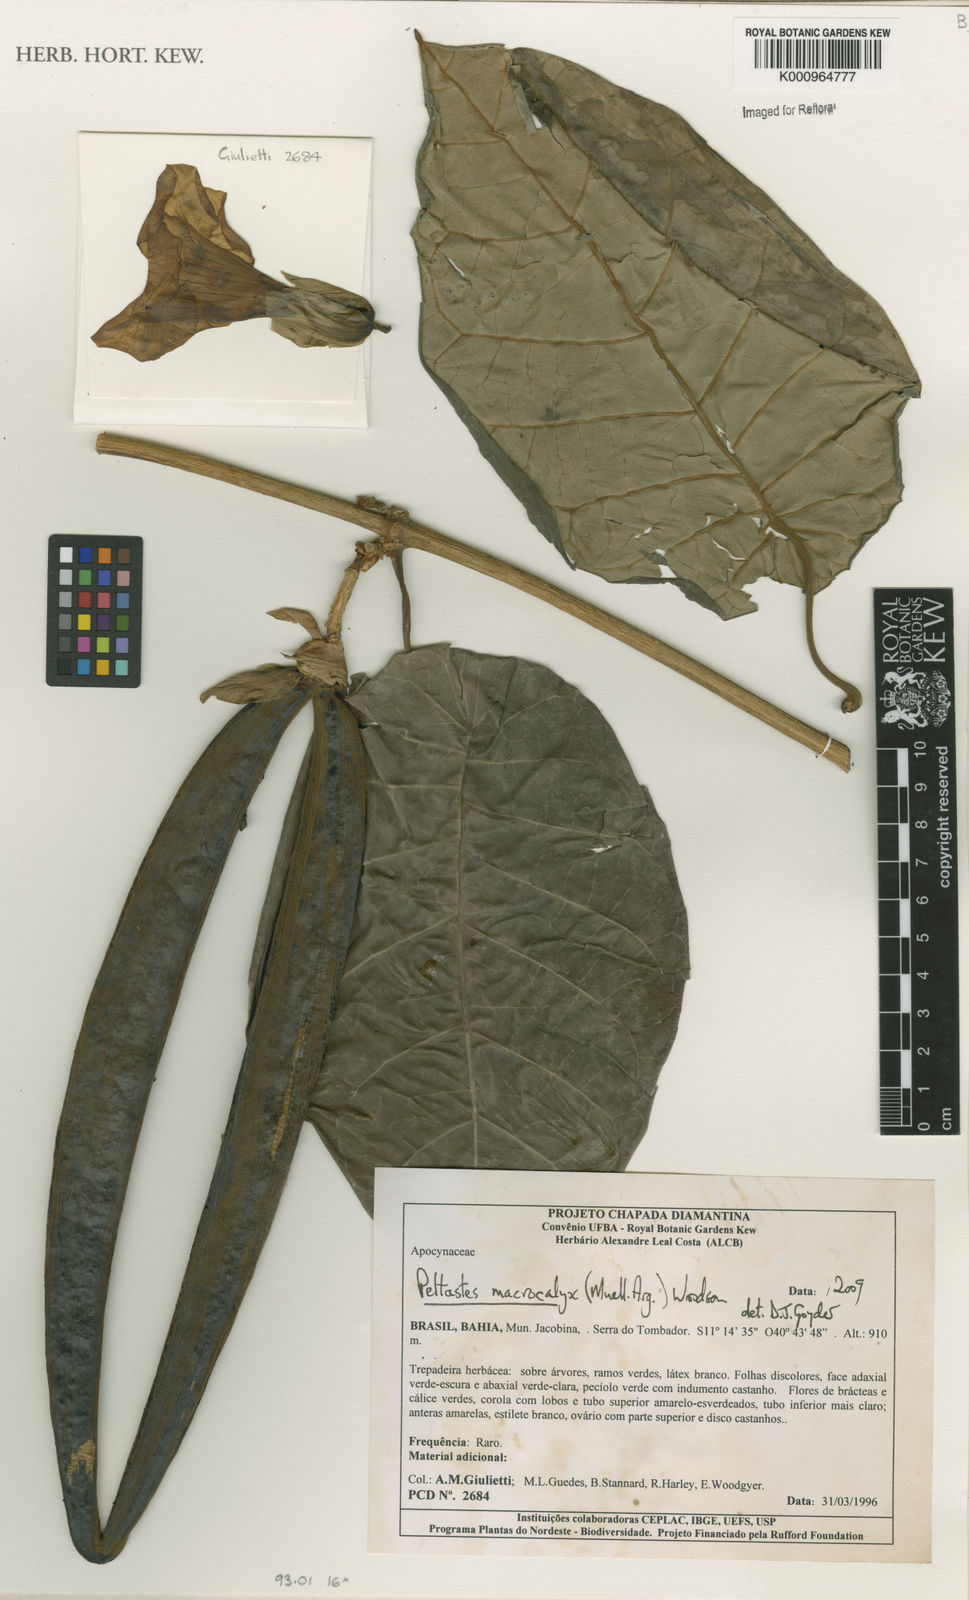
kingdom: Plantae
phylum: Tracheophyta
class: Magnoliopsida
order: Gentianales
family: Apocynaceae
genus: Macropharynx
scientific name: Macropharynx
